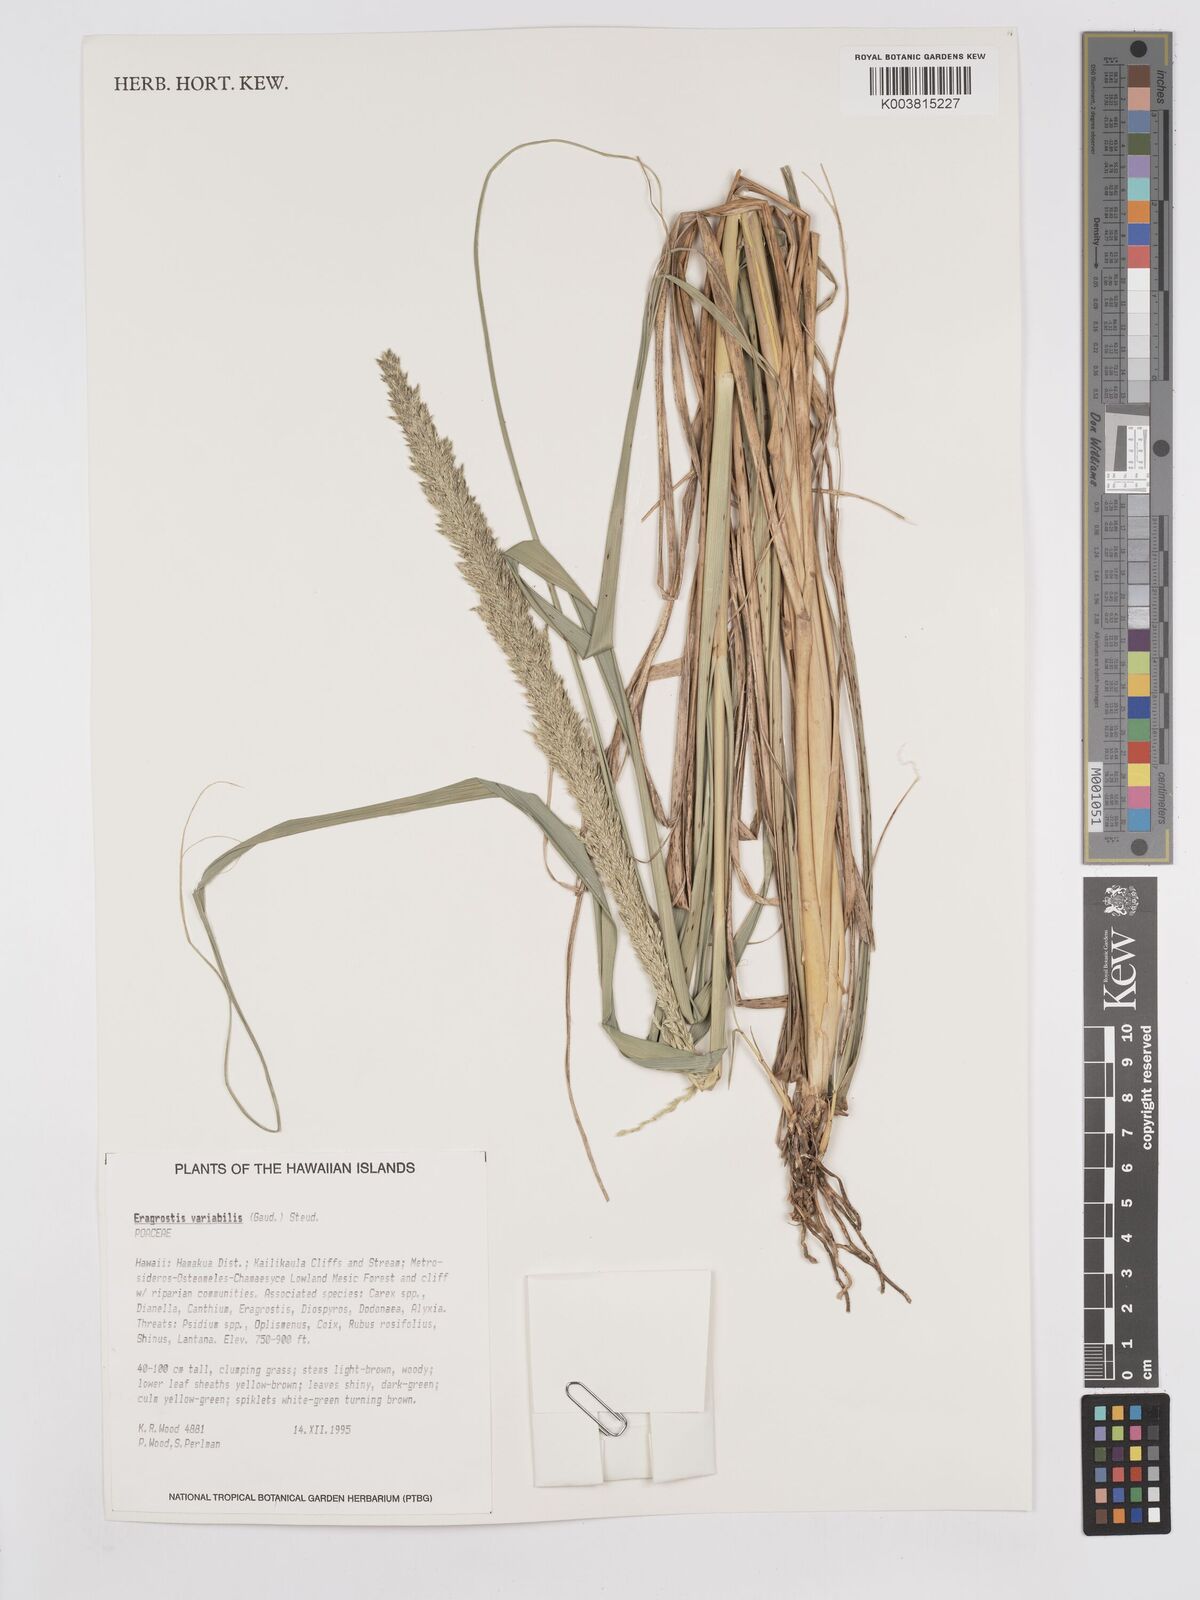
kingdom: Plantae
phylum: Tracheophyta
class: Liliopsida
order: Poales
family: Poaceae
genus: Eragrostis
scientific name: Eragrostis variabilis
